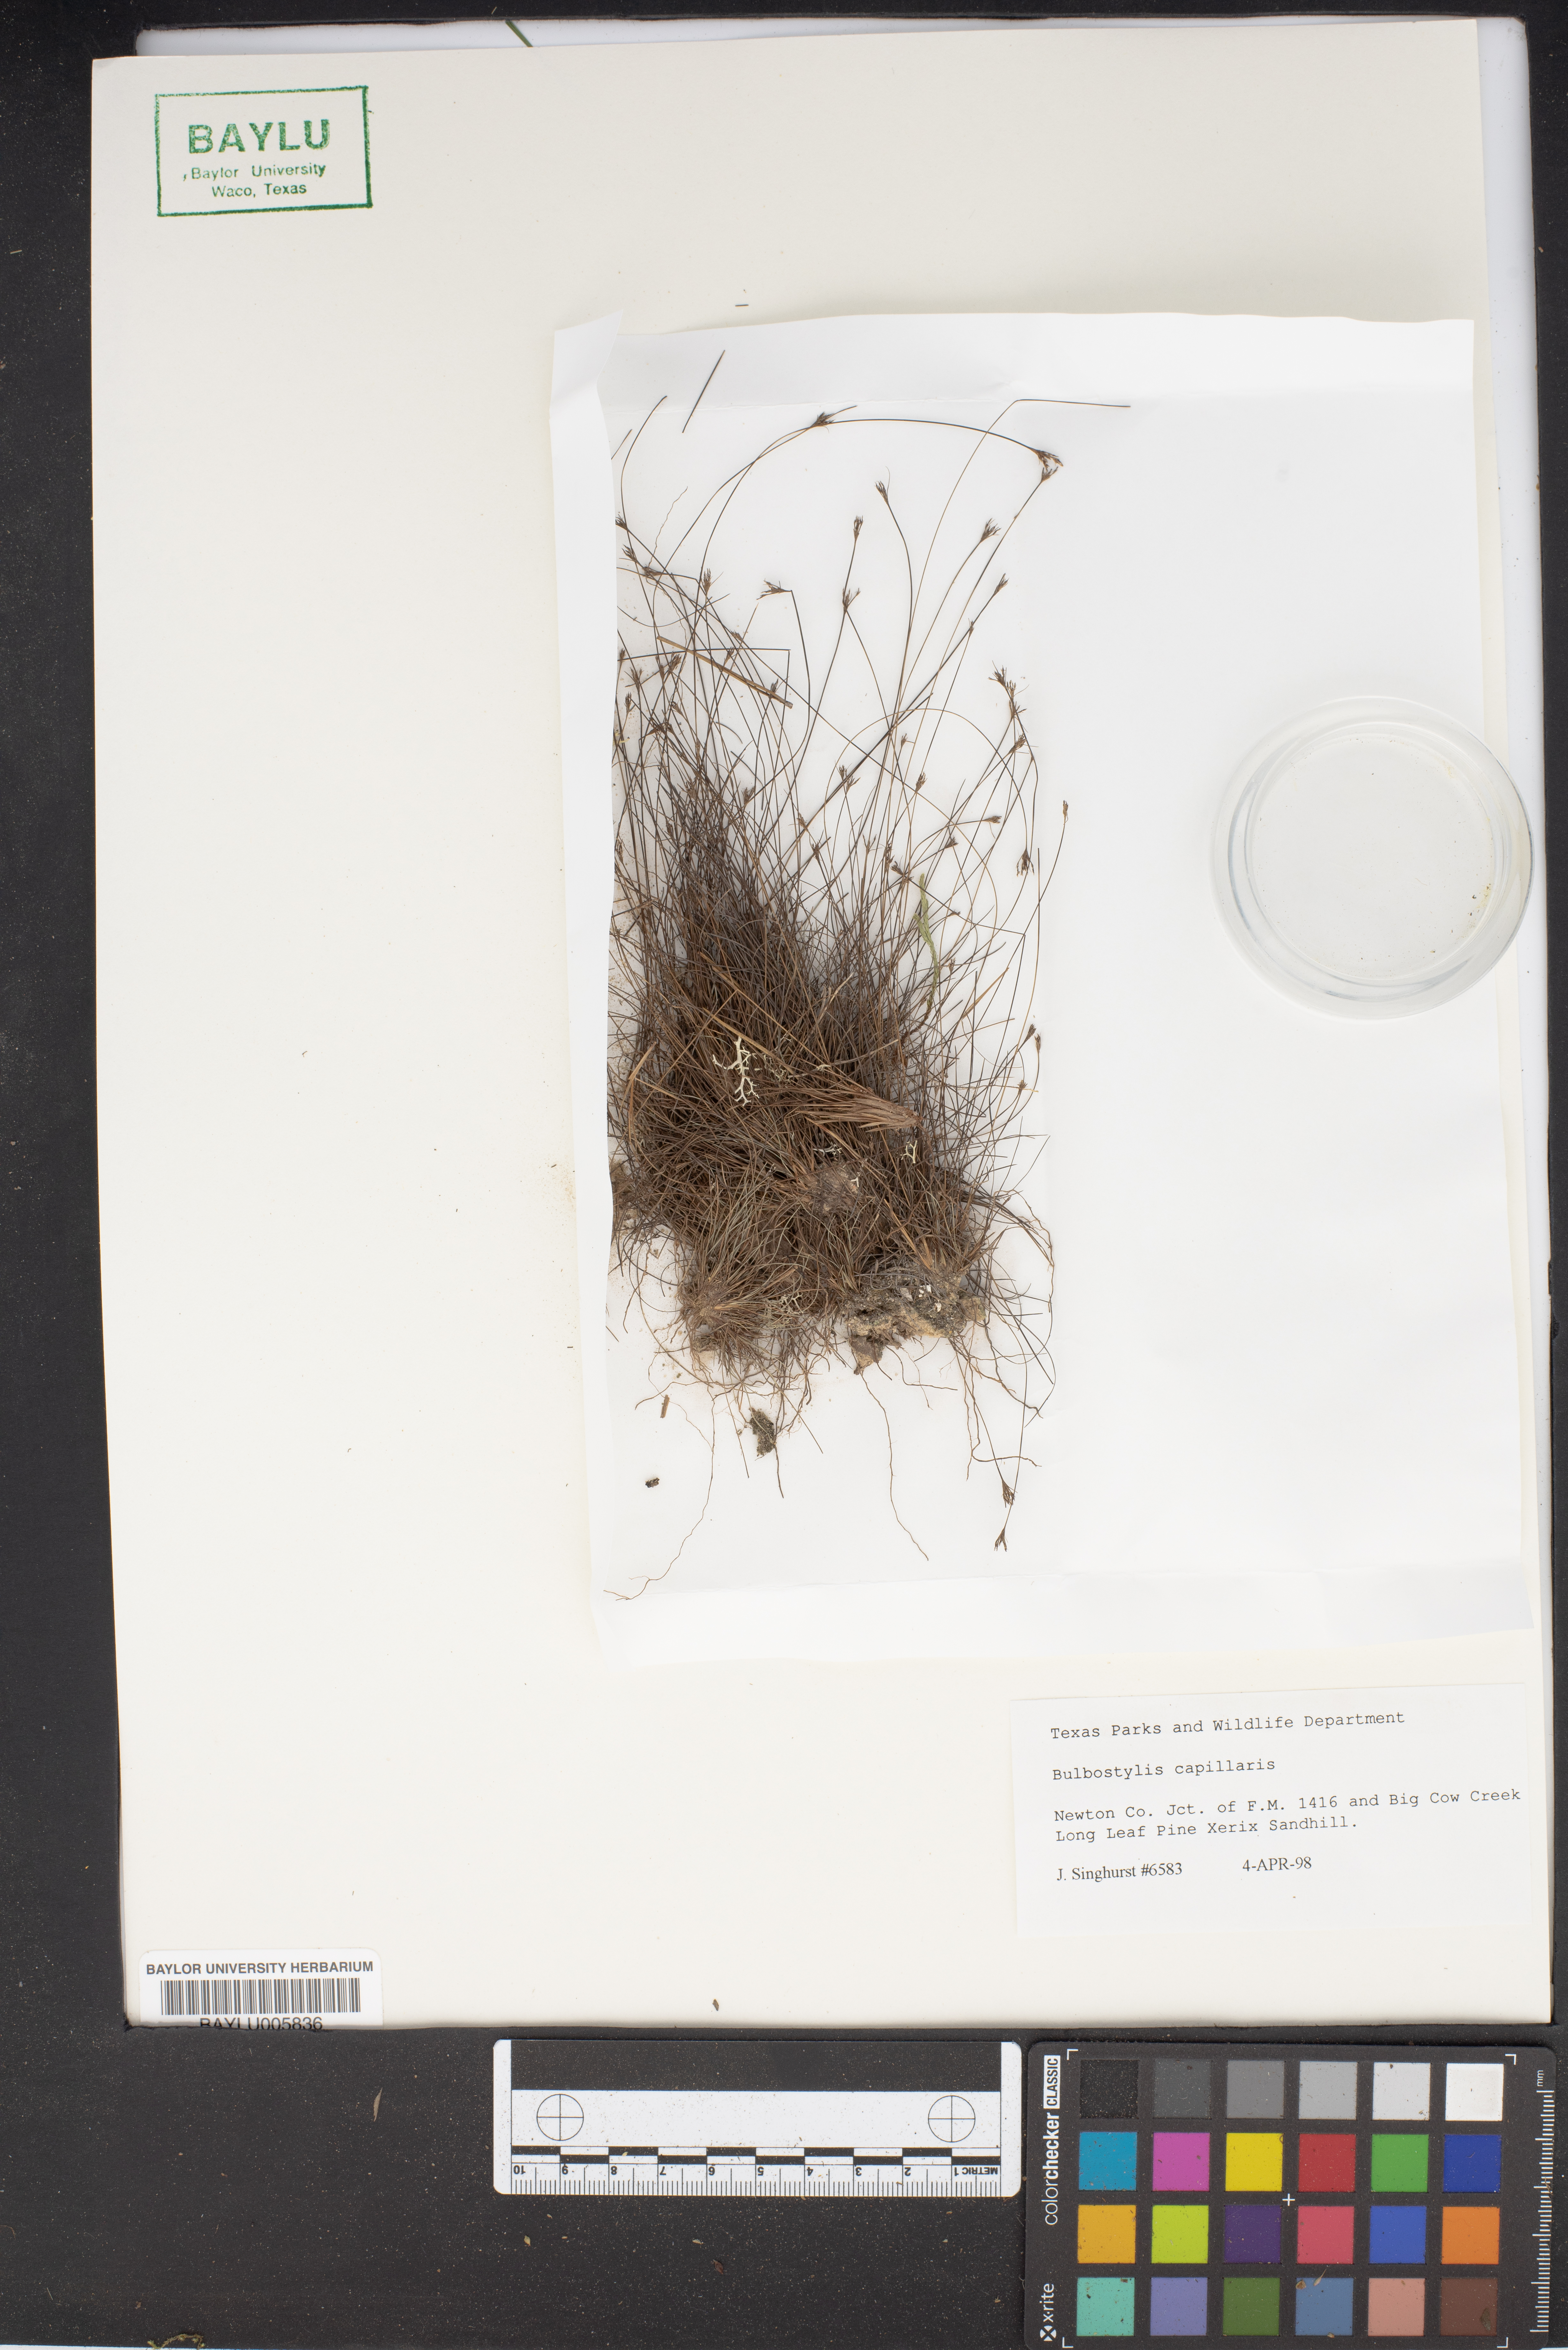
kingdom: Plantae
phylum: Tracheophyta
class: Liliopsida
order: Poales
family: Cyperaceae
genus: Bulbostylis
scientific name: Bulbostylis capillaris
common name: Densetuft hairsedge
